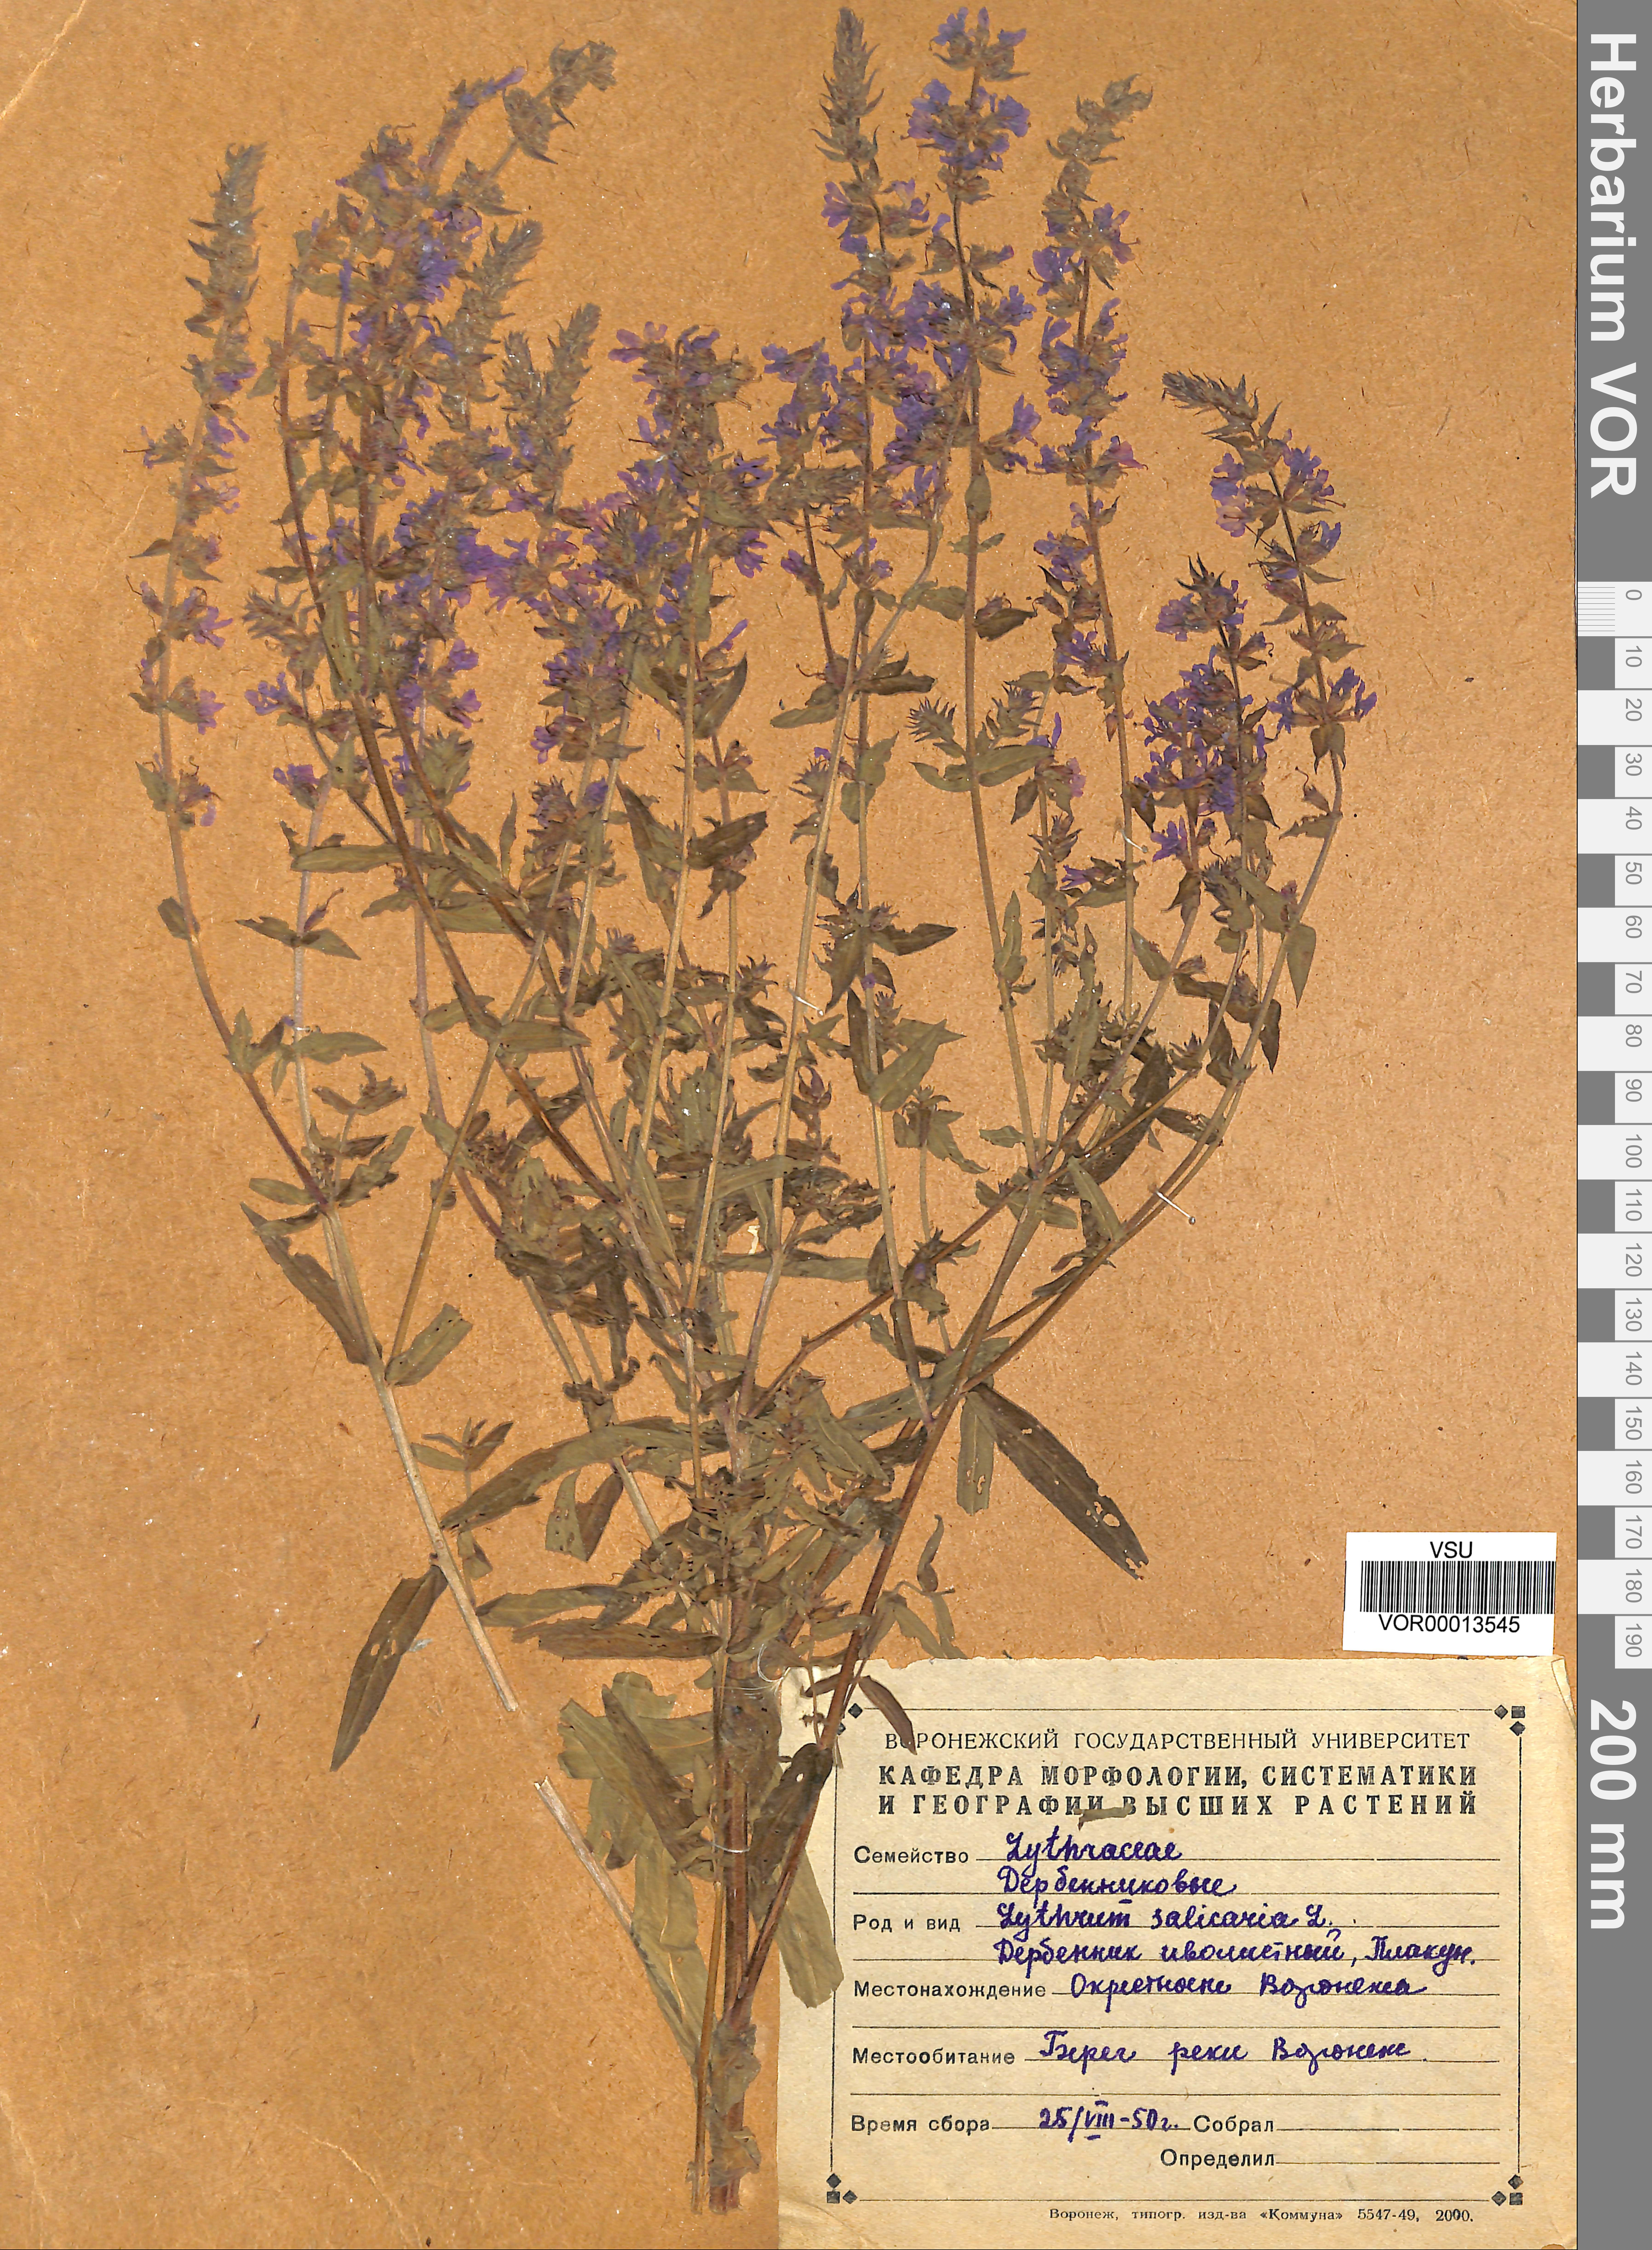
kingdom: Plantae
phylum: Tracheophyta
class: Magnoliopsida
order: Myrtales
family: Lythraceae
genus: Lythrum
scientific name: Lythrum salicaria
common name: Purple loosestrife
